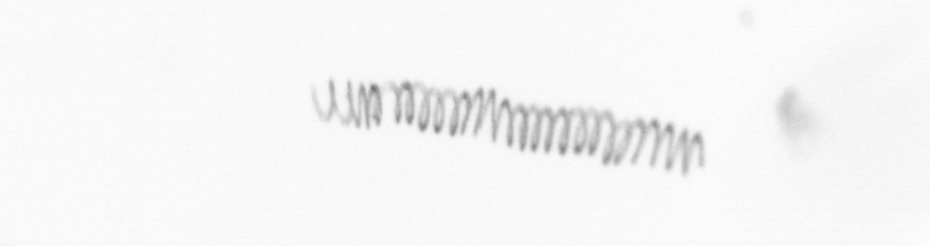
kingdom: Chromista
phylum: Ochrophyta
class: Bacillariophyceae
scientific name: Bacillariophyceae
